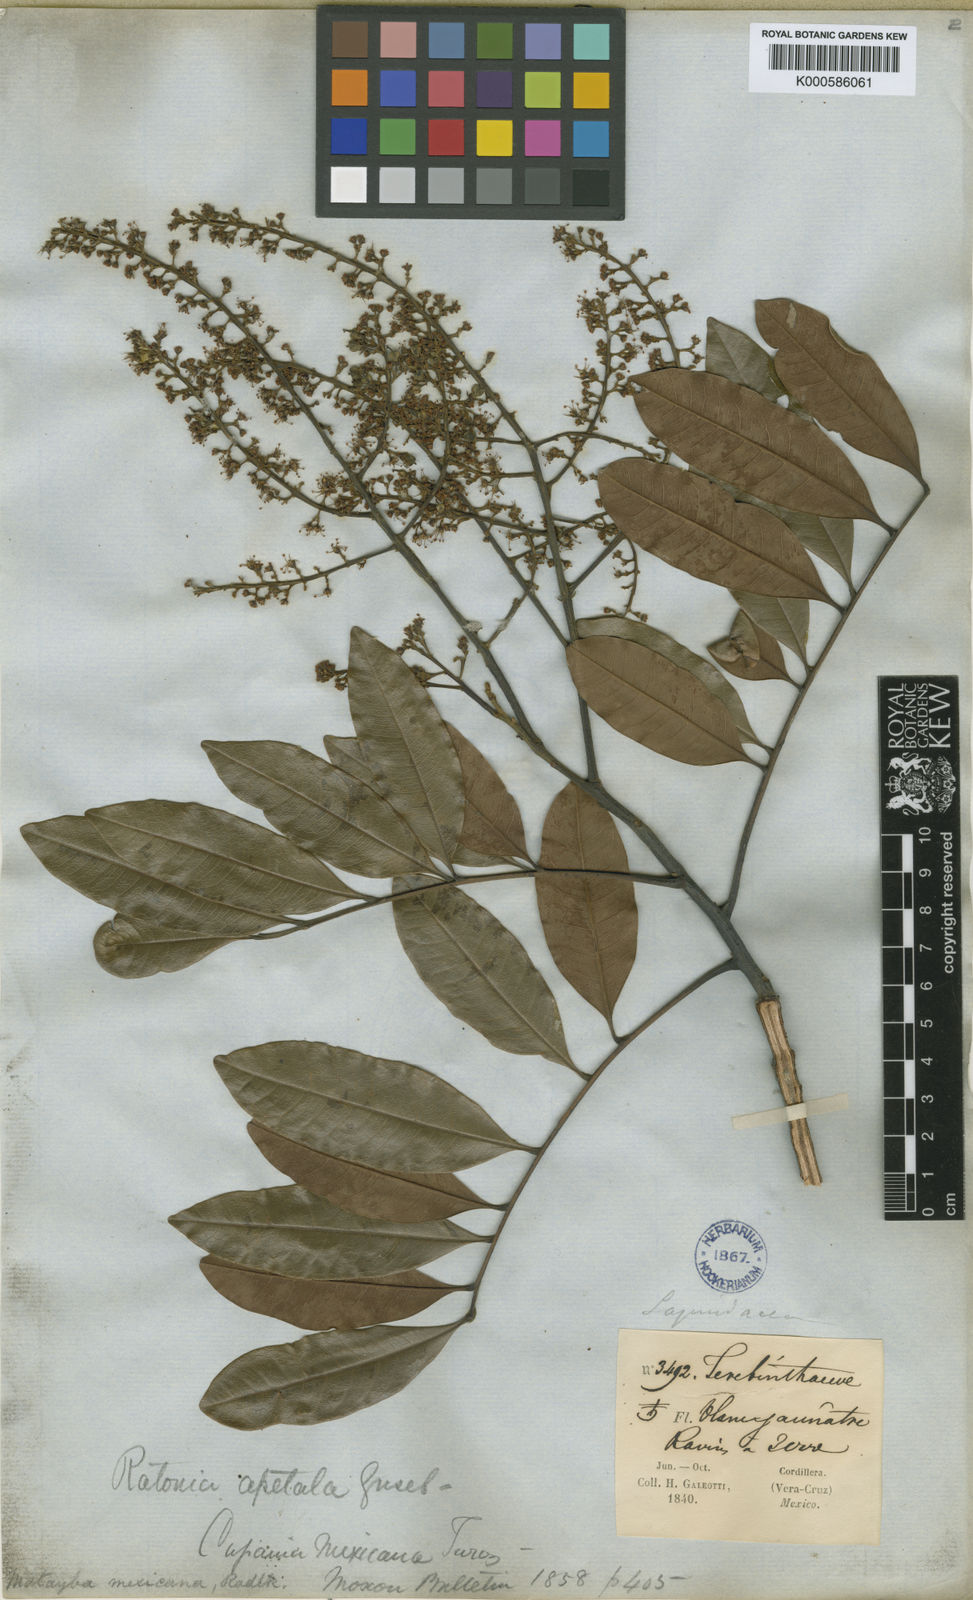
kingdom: Plantae
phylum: Tracheophyta
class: Magnoliopsida
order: Sapindales
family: Sapindaceae
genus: Matayba
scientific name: Matayba mexicana
